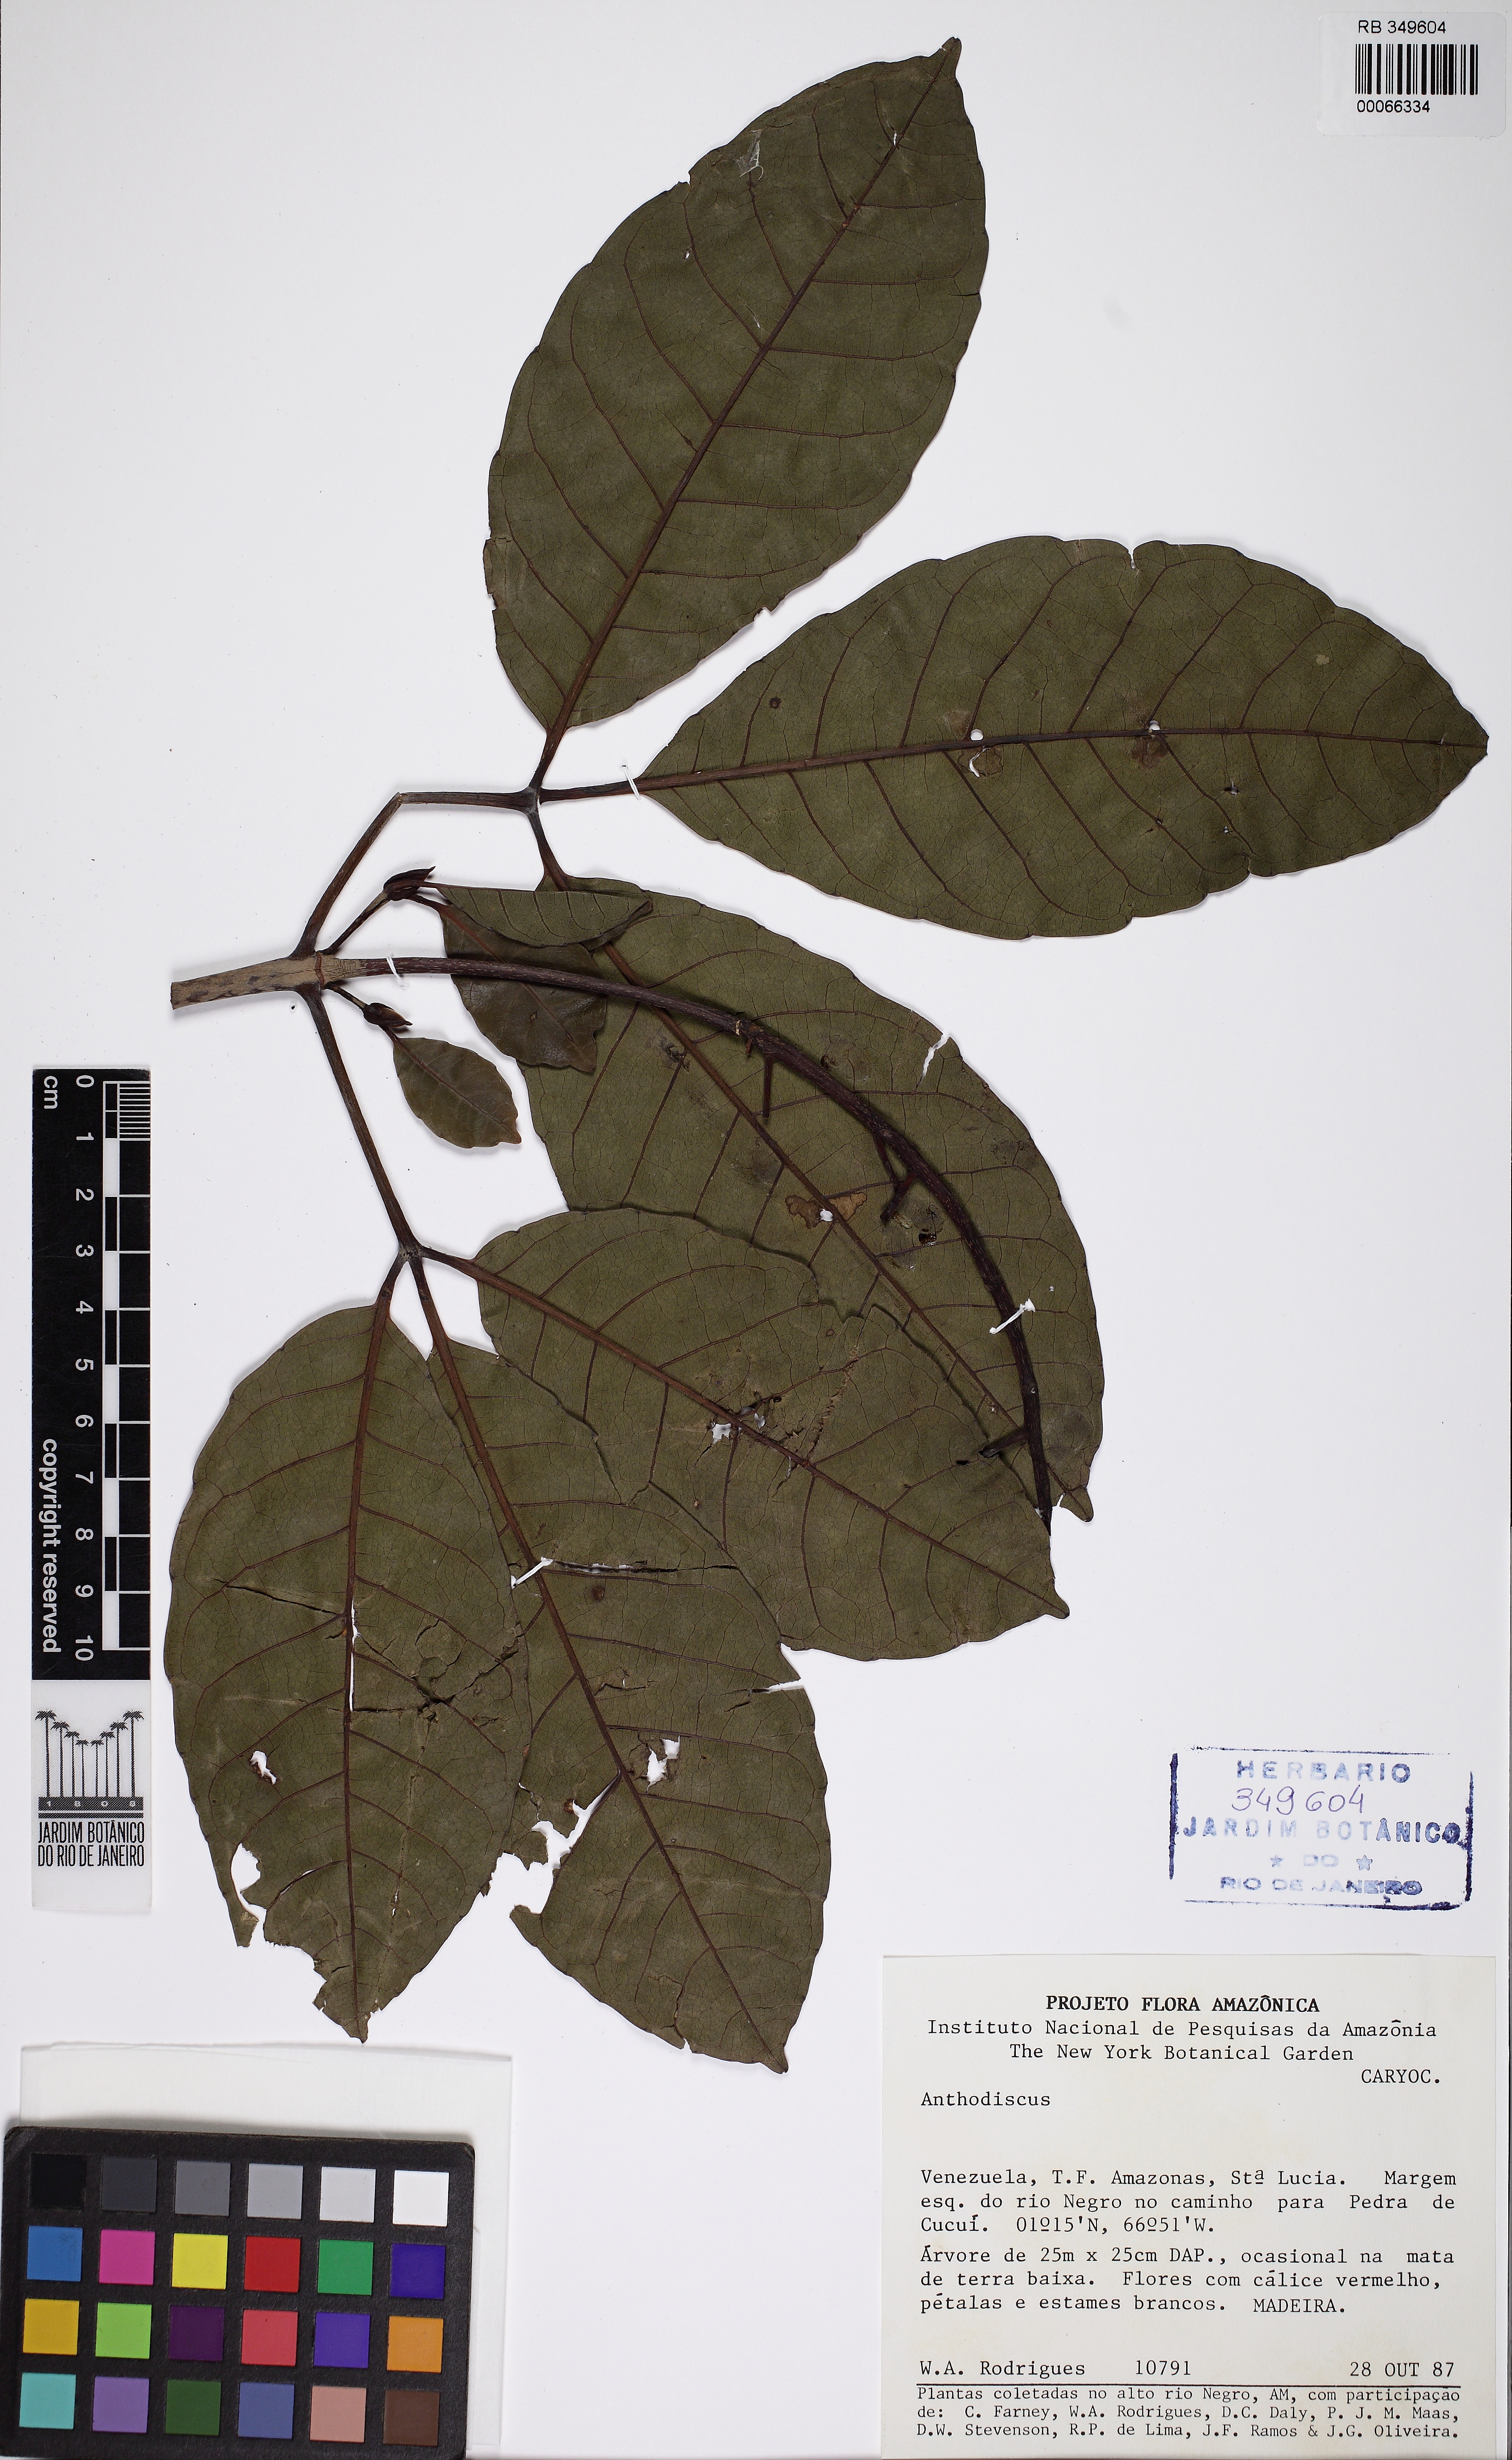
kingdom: Plantae
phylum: Tracheophyta
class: Magnoliopsida
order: Malpighiales
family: Caryocaraceae
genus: Anthodiscus
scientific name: Anthodiscus
